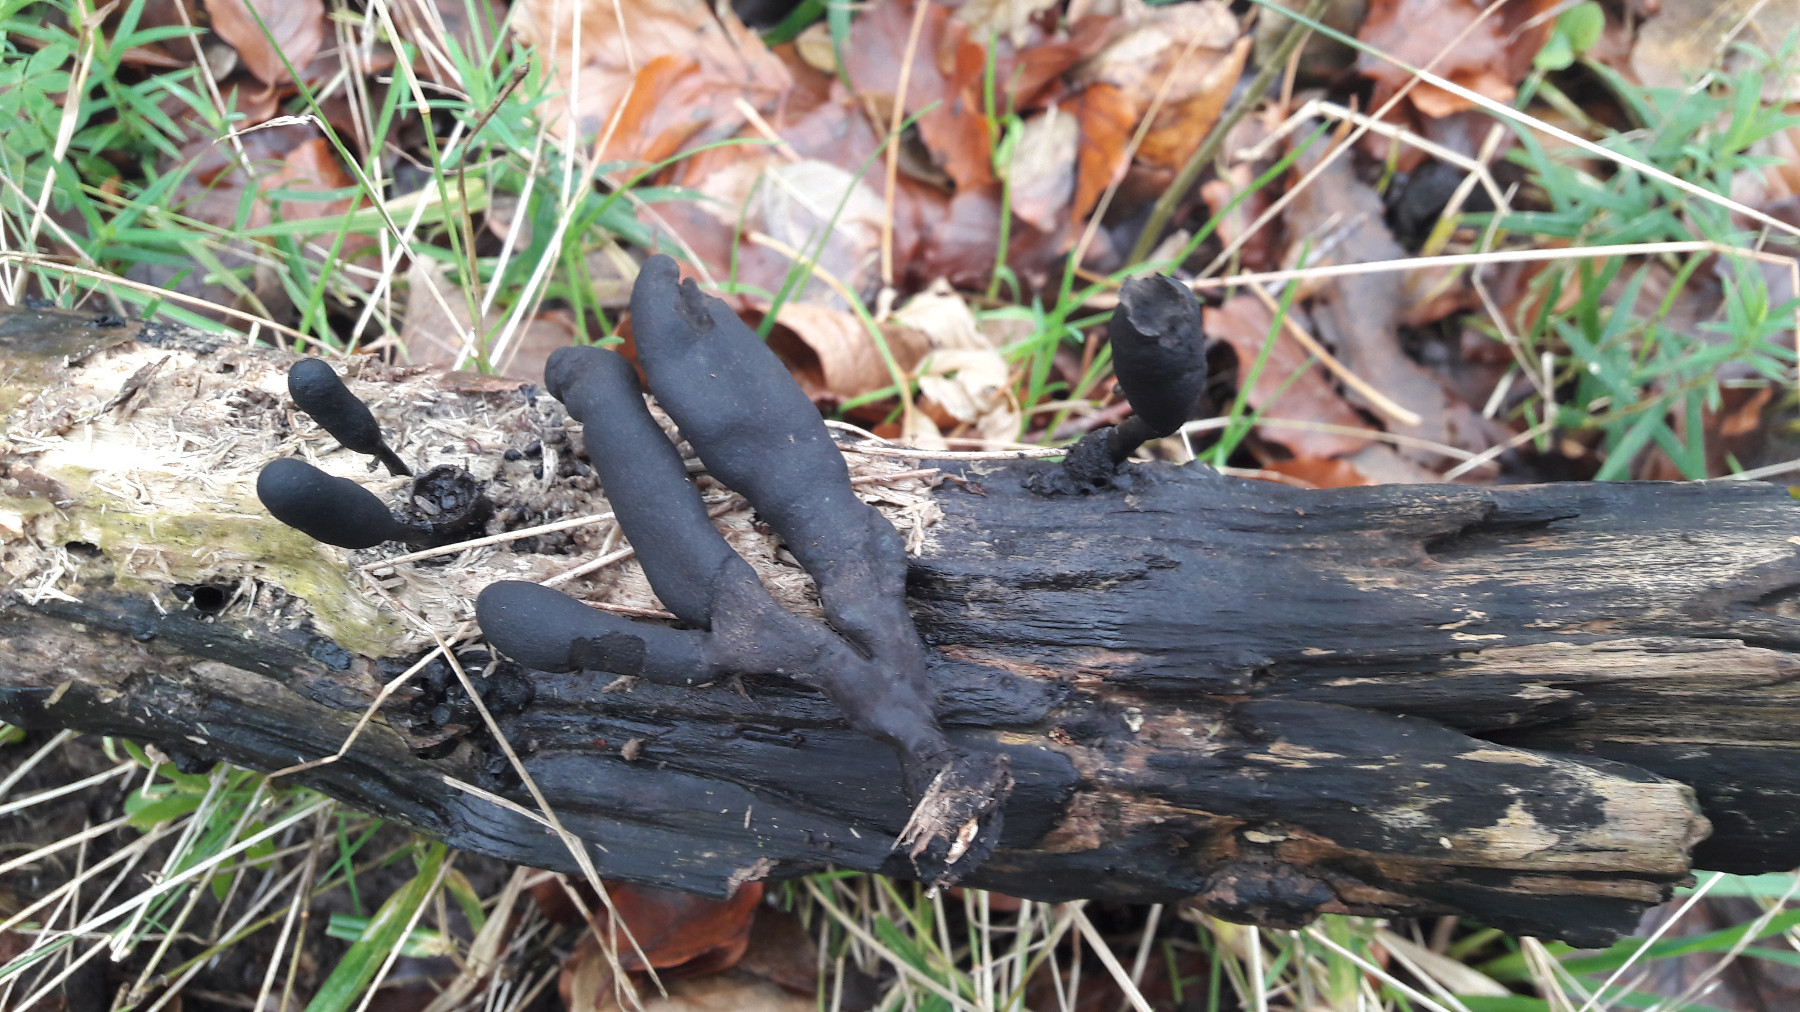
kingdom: Fungi
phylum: Ascomycota
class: Sordariomycetes
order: Xylariales
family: Xylariaceae
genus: Xylaria
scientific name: Xylaria longipes
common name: slank stødsvamp
